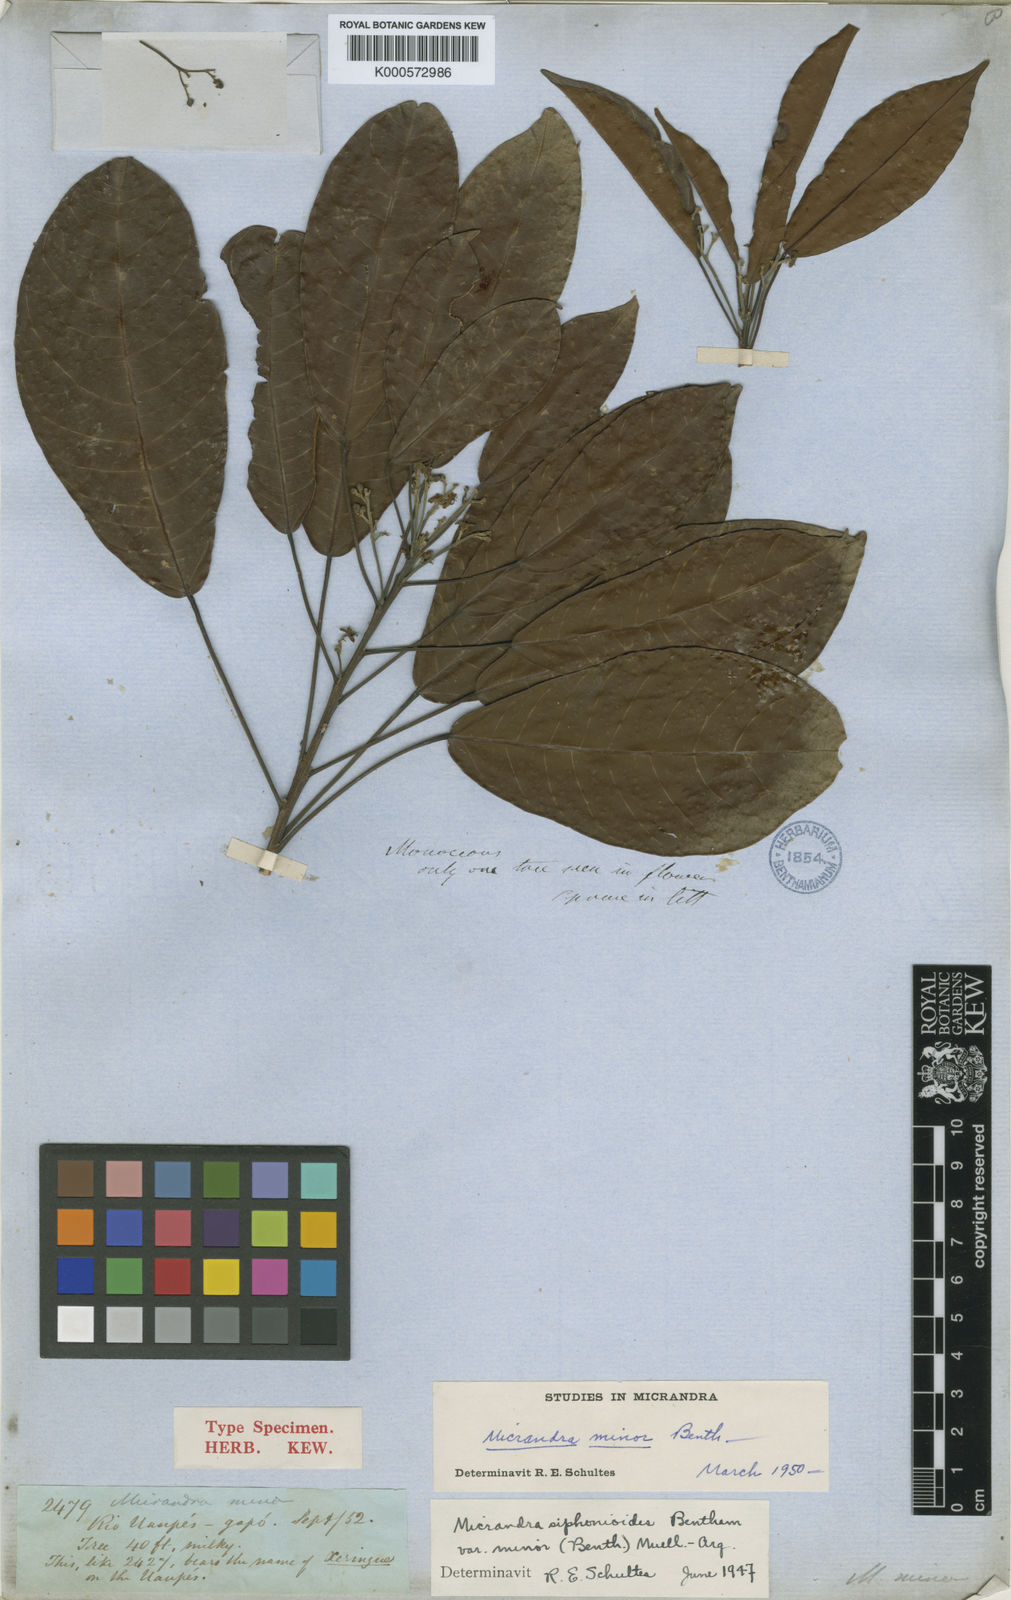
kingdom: Plantae
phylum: Tracheophyta
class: Magnoliopsida
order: Malpighiales
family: Euphorbiaceae
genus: Micrandra
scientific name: Micrandra siphonioides
